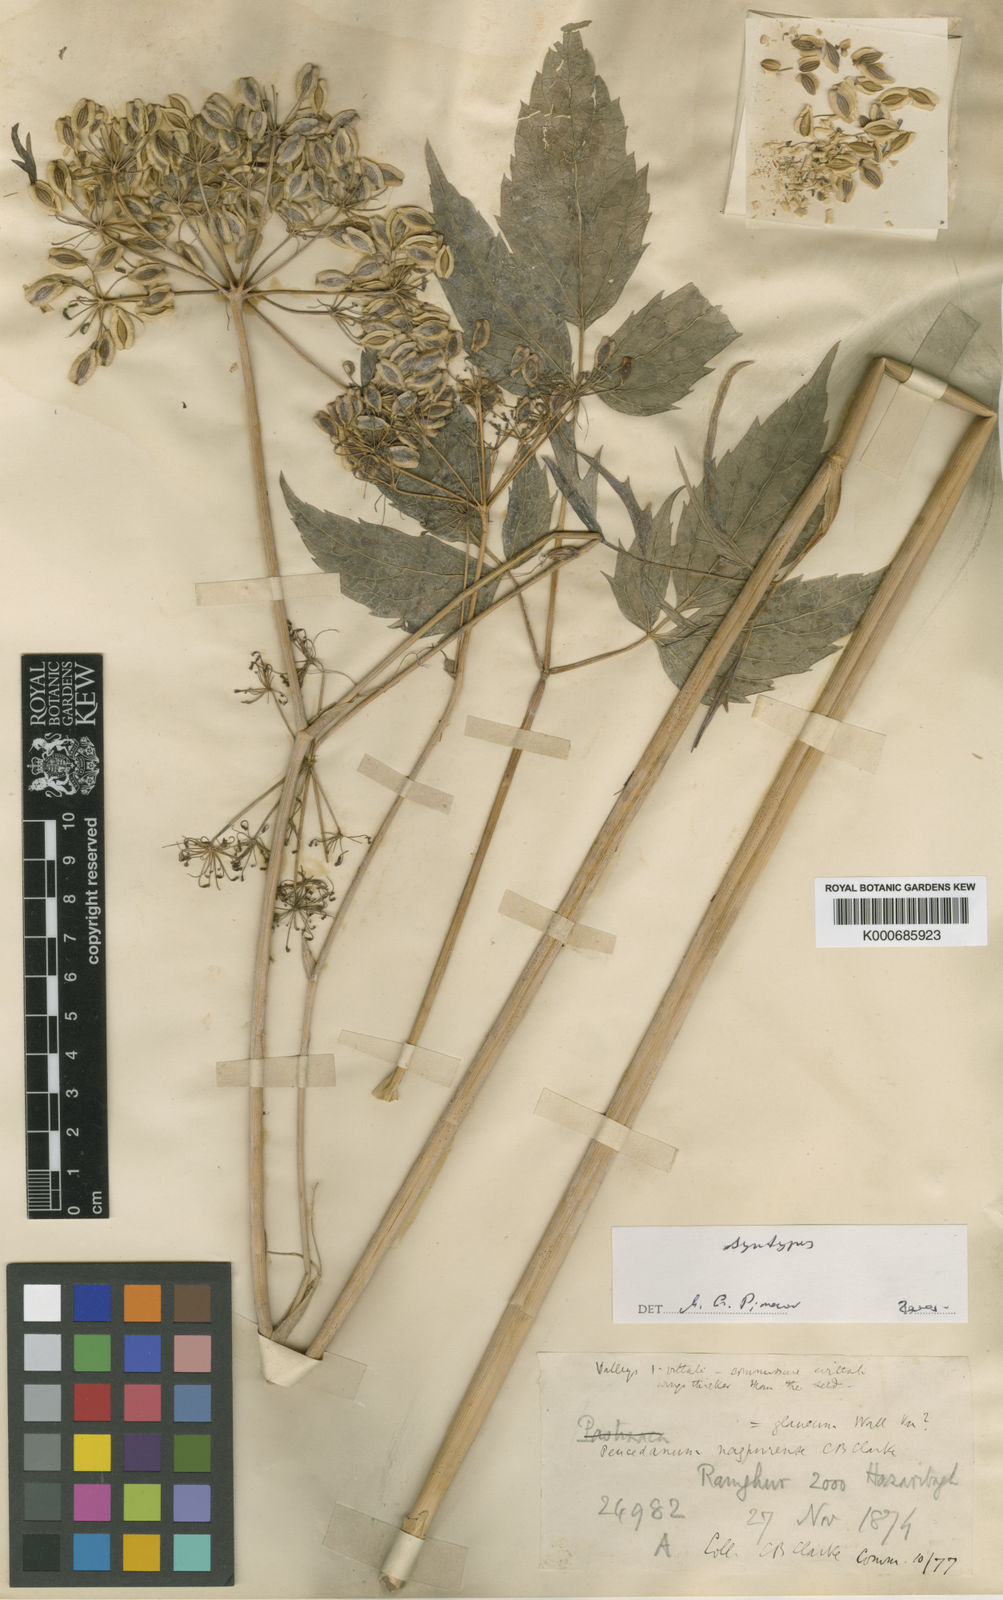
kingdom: Plantae
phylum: Tracheophyta
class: Magnoliopsida
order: Apiales
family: Apiaceae
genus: Peucedanum
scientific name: Peucedanum
